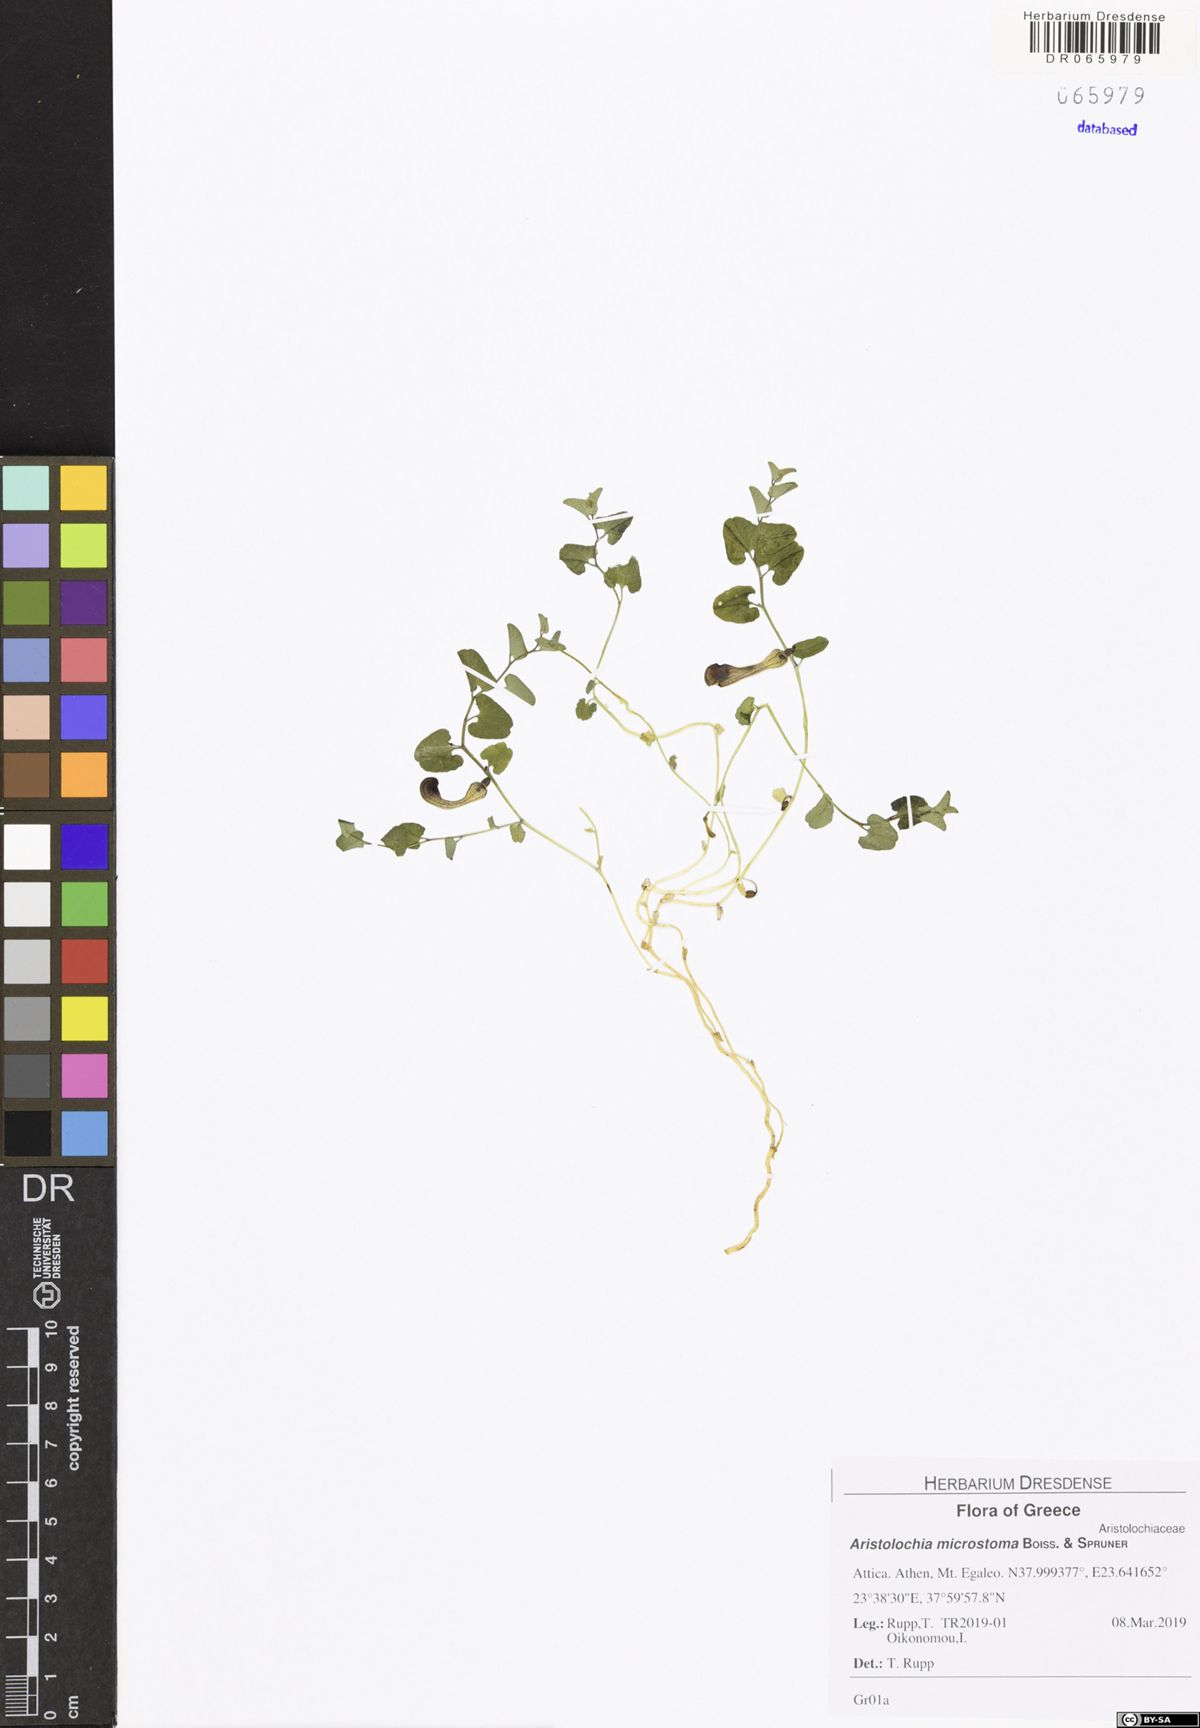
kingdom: Plantae
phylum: Tracheophyta
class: Magnoliopsida
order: Piperales
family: Aristolochiaceae
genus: Aristolochia
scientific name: Aristolochia microstoma
